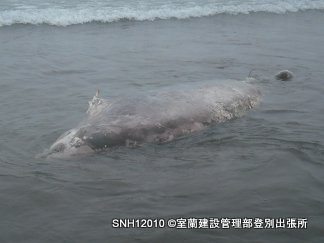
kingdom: Animalia
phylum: Chordata
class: Mammalia
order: Cetacea
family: Hyperoodontidae
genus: Ziphius
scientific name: Ziphius cavirostris
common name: Cuvier's beaked whale
